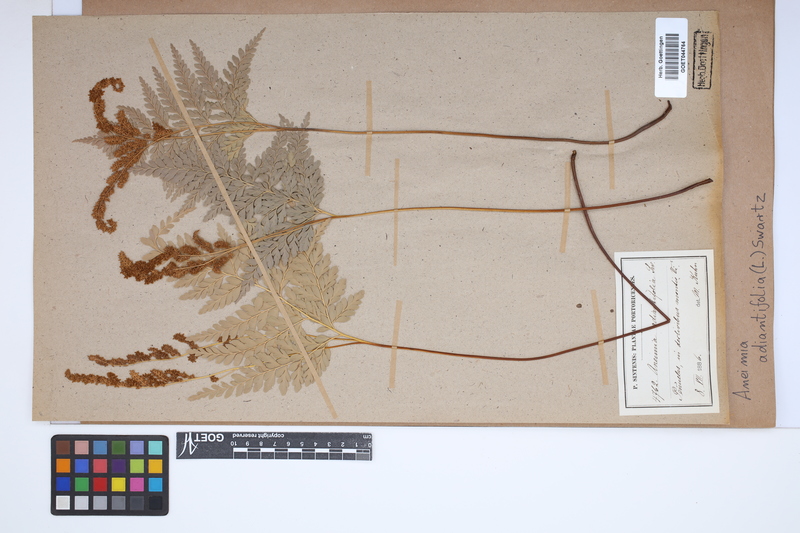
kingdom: Plantae
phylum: Tracheophyta
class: Polypodiopsida
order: Schizaeales
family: Anemiaceae
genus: Anemia
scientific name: Anemia adiantifolia
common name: Pine fern
